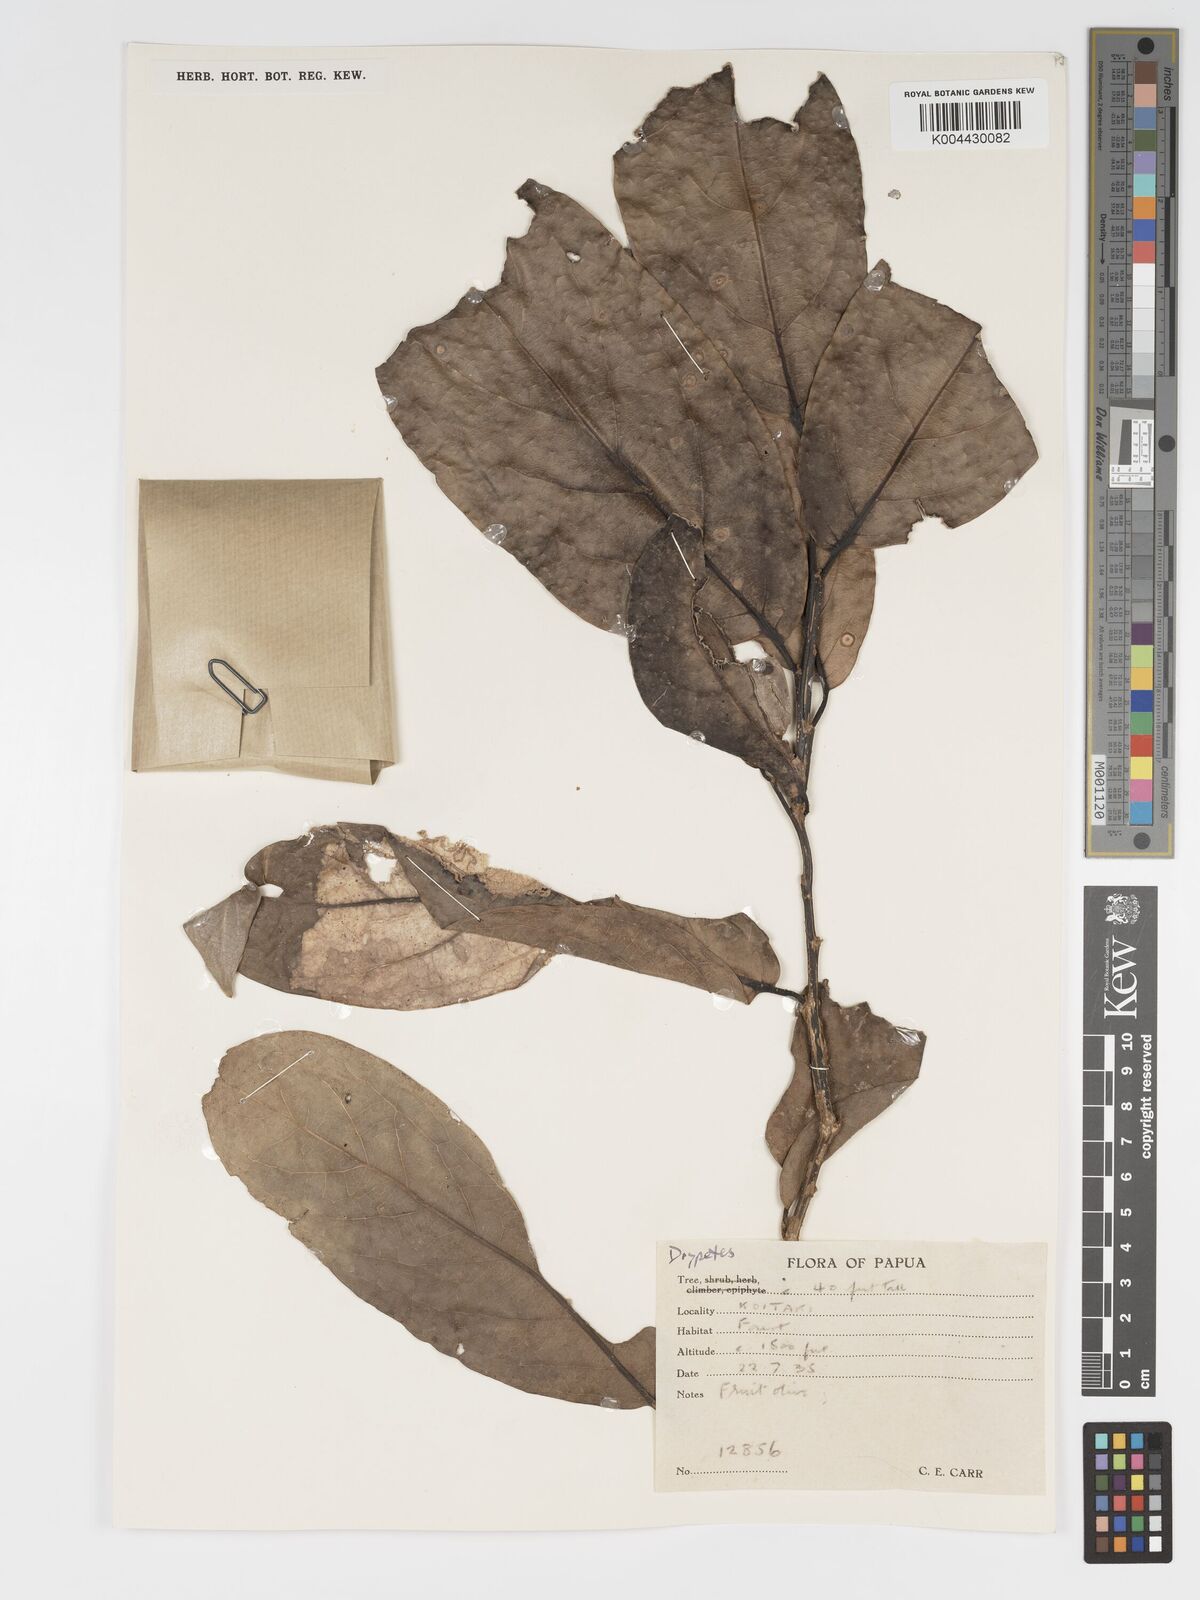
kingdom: Plantae
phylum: Tracheophyta
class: Magnoliopsida
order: Malpighiales
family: Putranjivaceae
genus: Drypetes
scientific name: Drypetes longifolia
